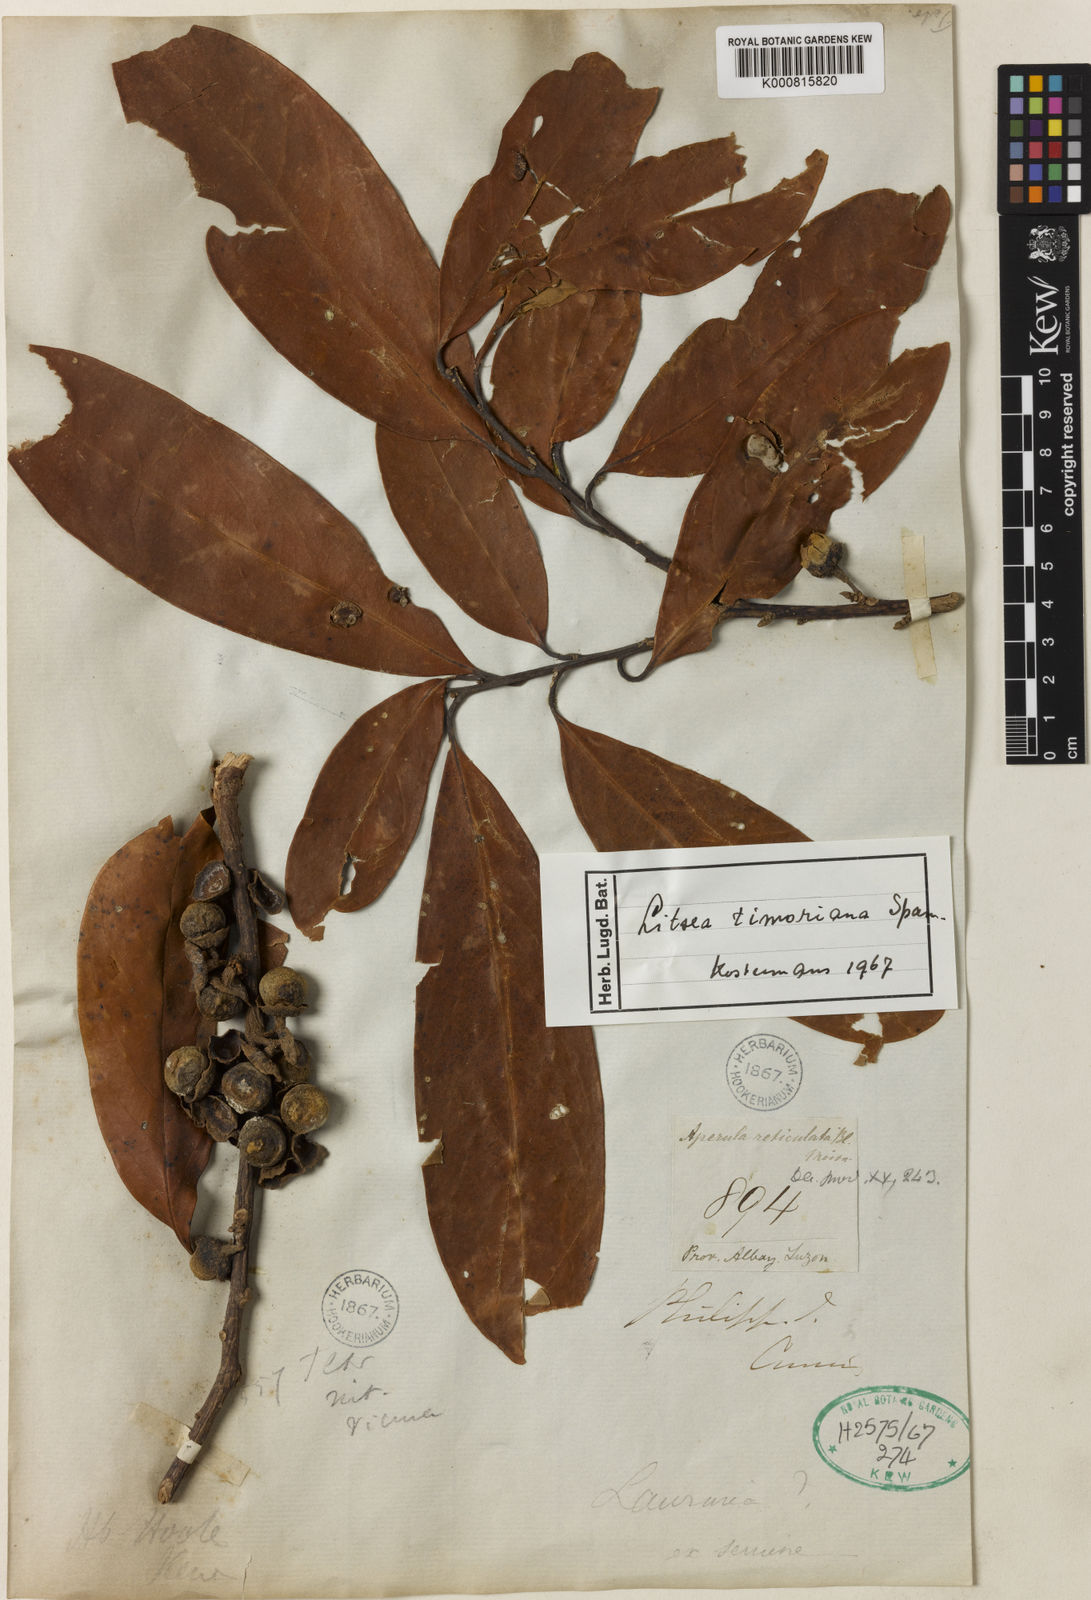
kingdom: Plantae
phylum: Tracheophyta
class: Magnoliopsida
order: Laurales
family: Lauraceae
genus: Litsea
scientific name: Litsea timoriana
